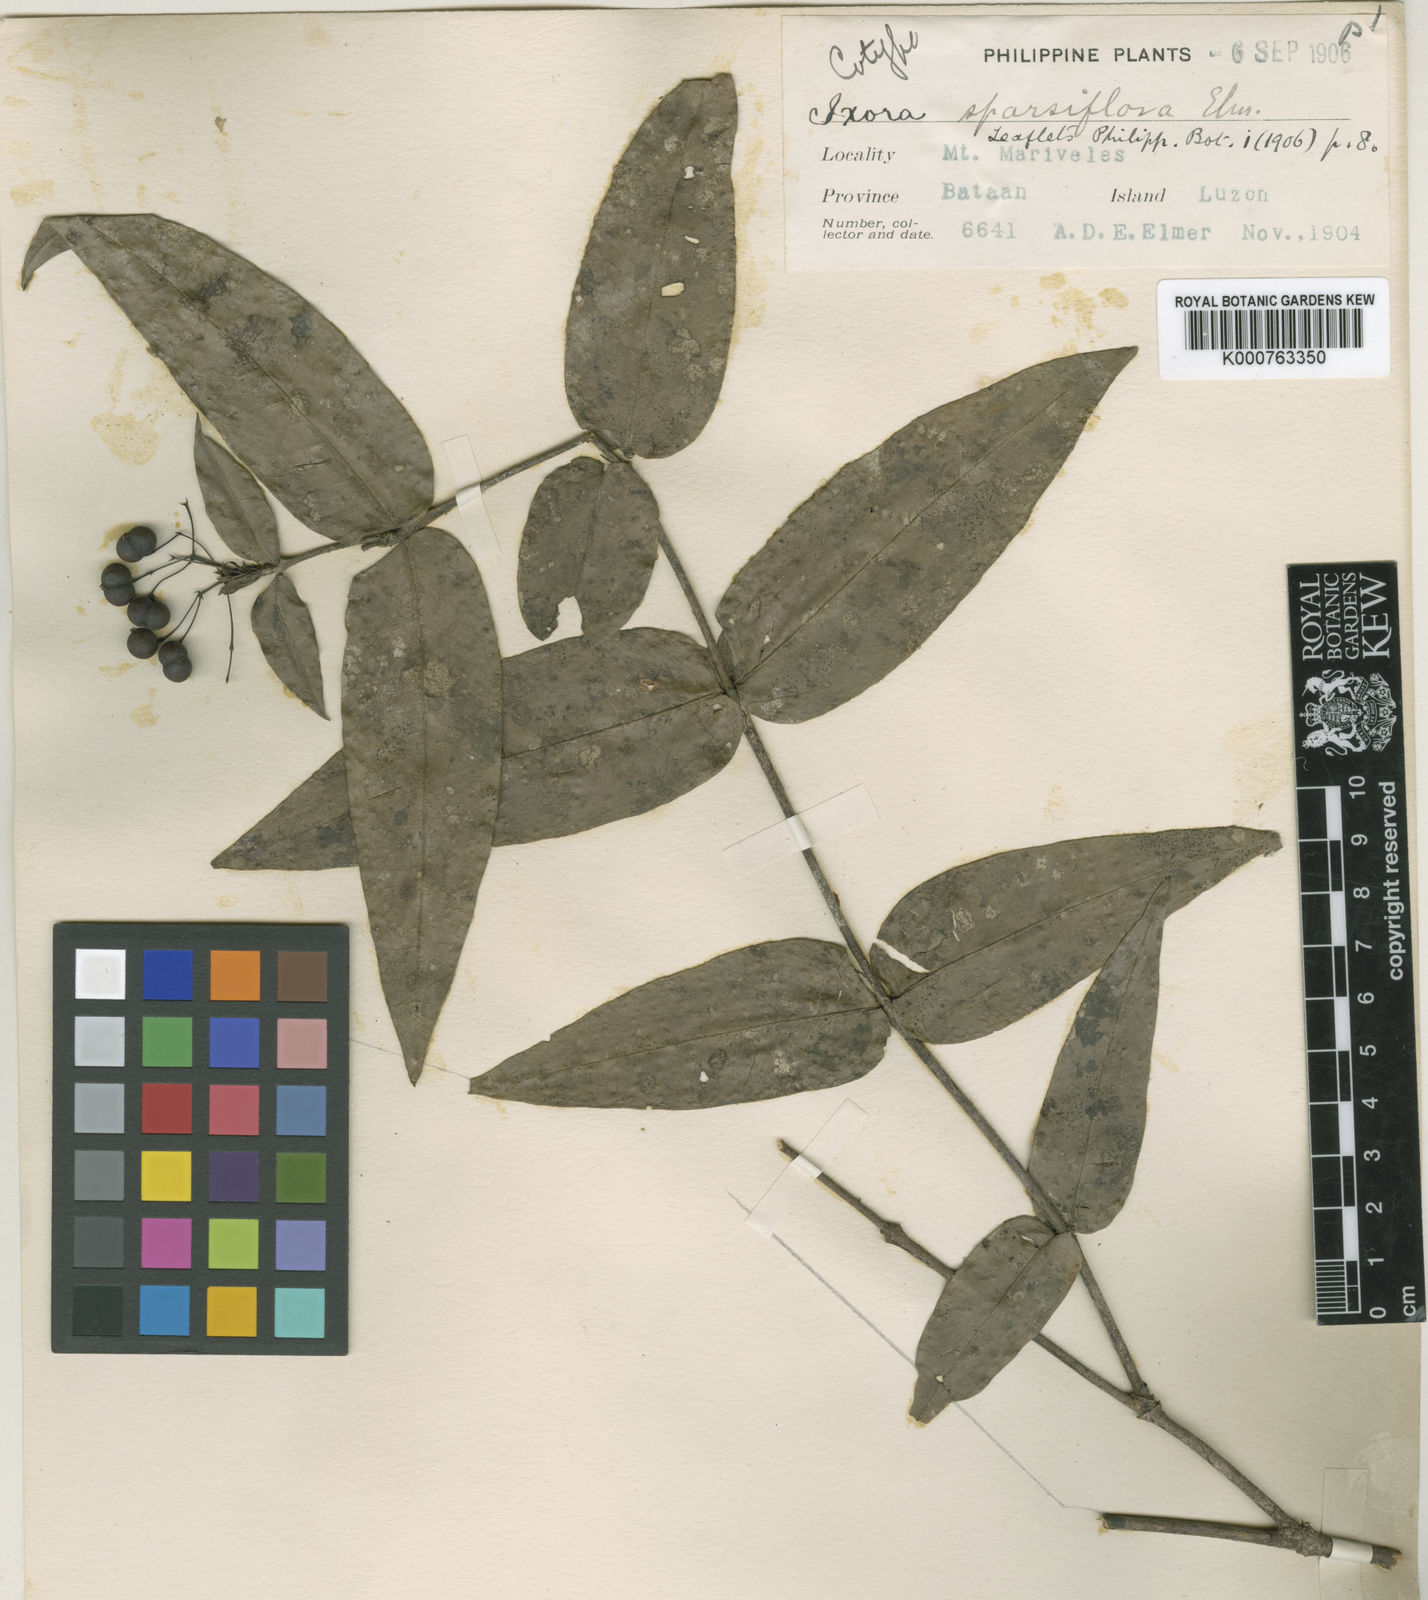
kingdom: Plantae
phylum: Tracheophyta
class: Magnoliopsida
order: Gentianales
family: Rubiaceae
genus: Ixora
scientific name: Ixora sparsiflora
